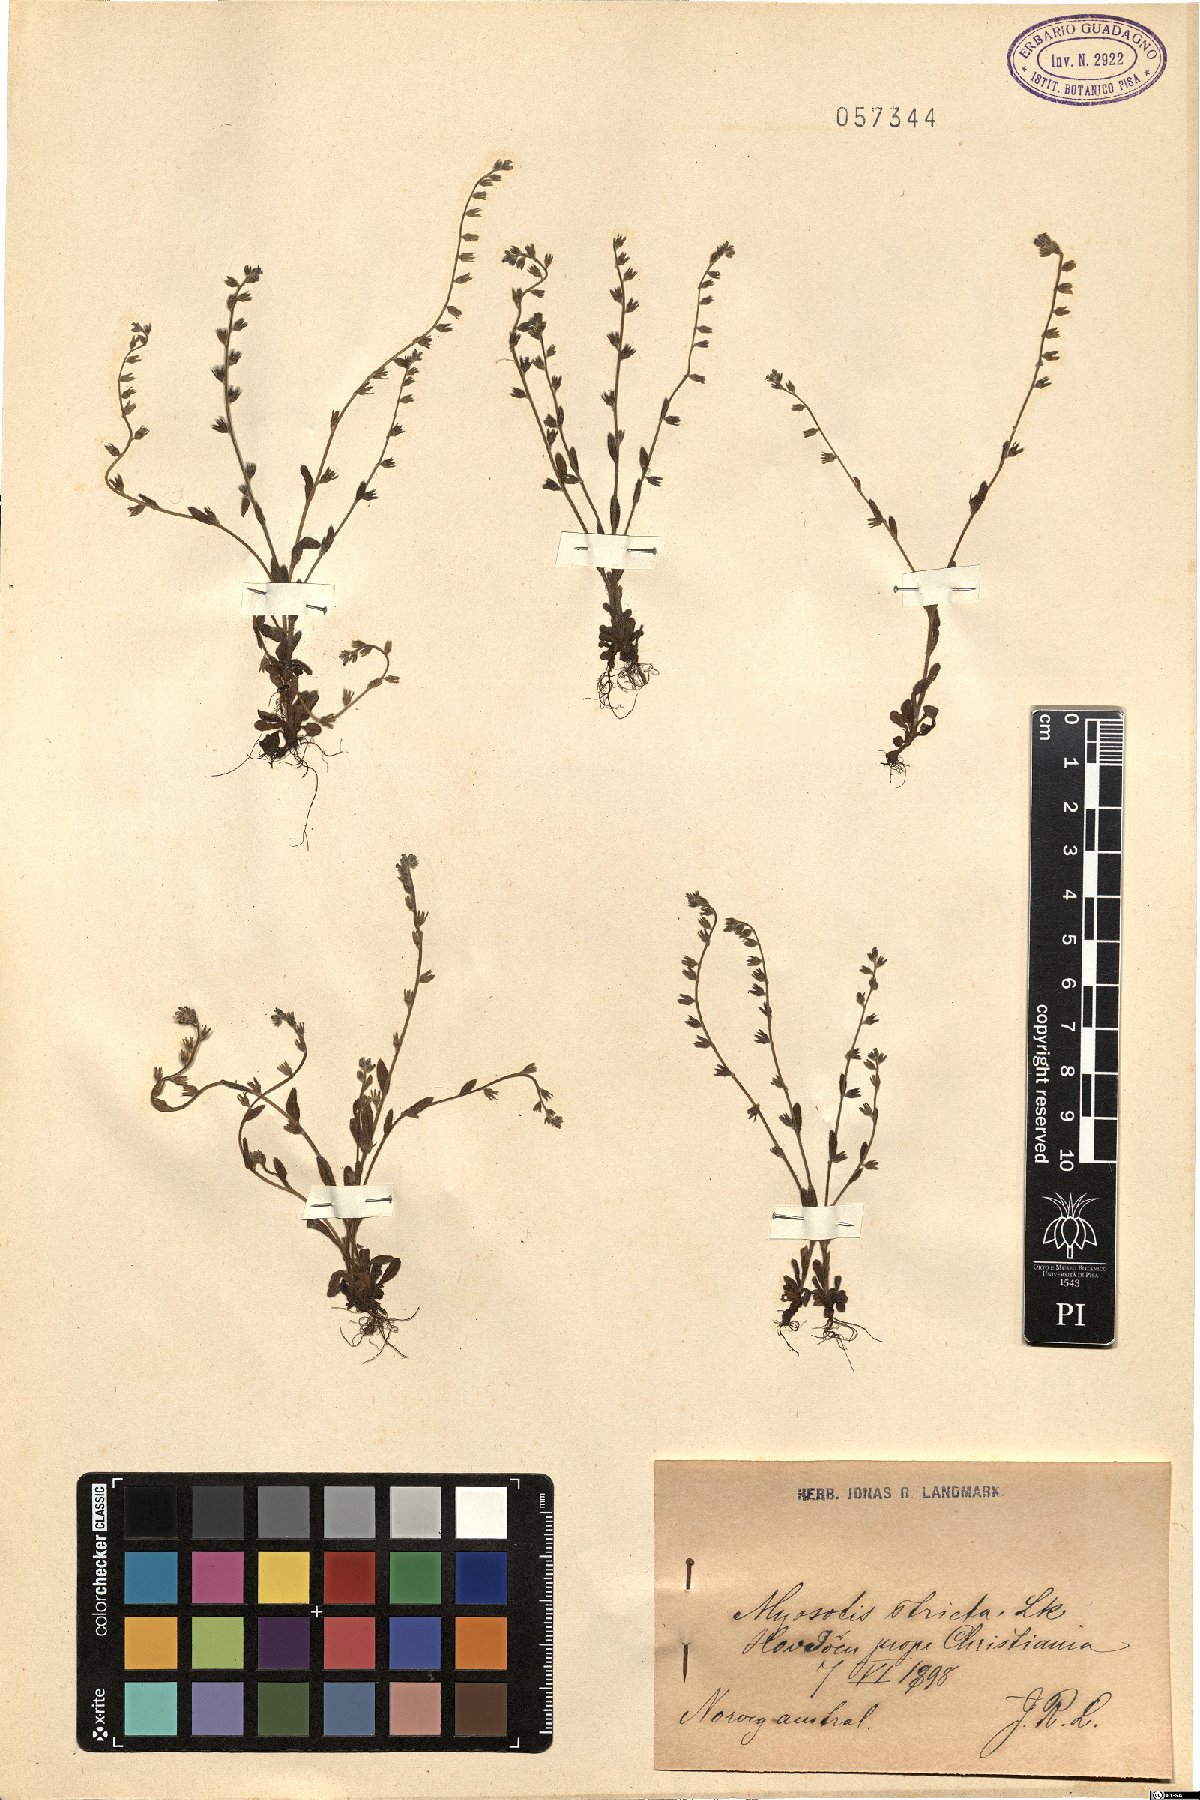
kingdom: Plantae
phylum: Tracheophyta
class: Magnoliopsida
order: Boraginales
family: Boraginaceae
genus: Myosotis
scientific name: Myosotis stricta
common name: Strict forget-me-not
